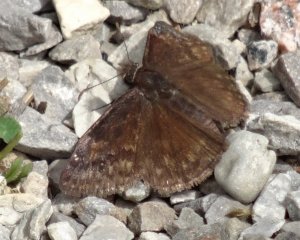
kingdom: Animalia
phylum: Arthropoda
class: Insecta
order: Lepidoptera
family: Hesperiidae
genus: Gesta
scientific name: Gesta
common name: Wild Indigo Duskywing
